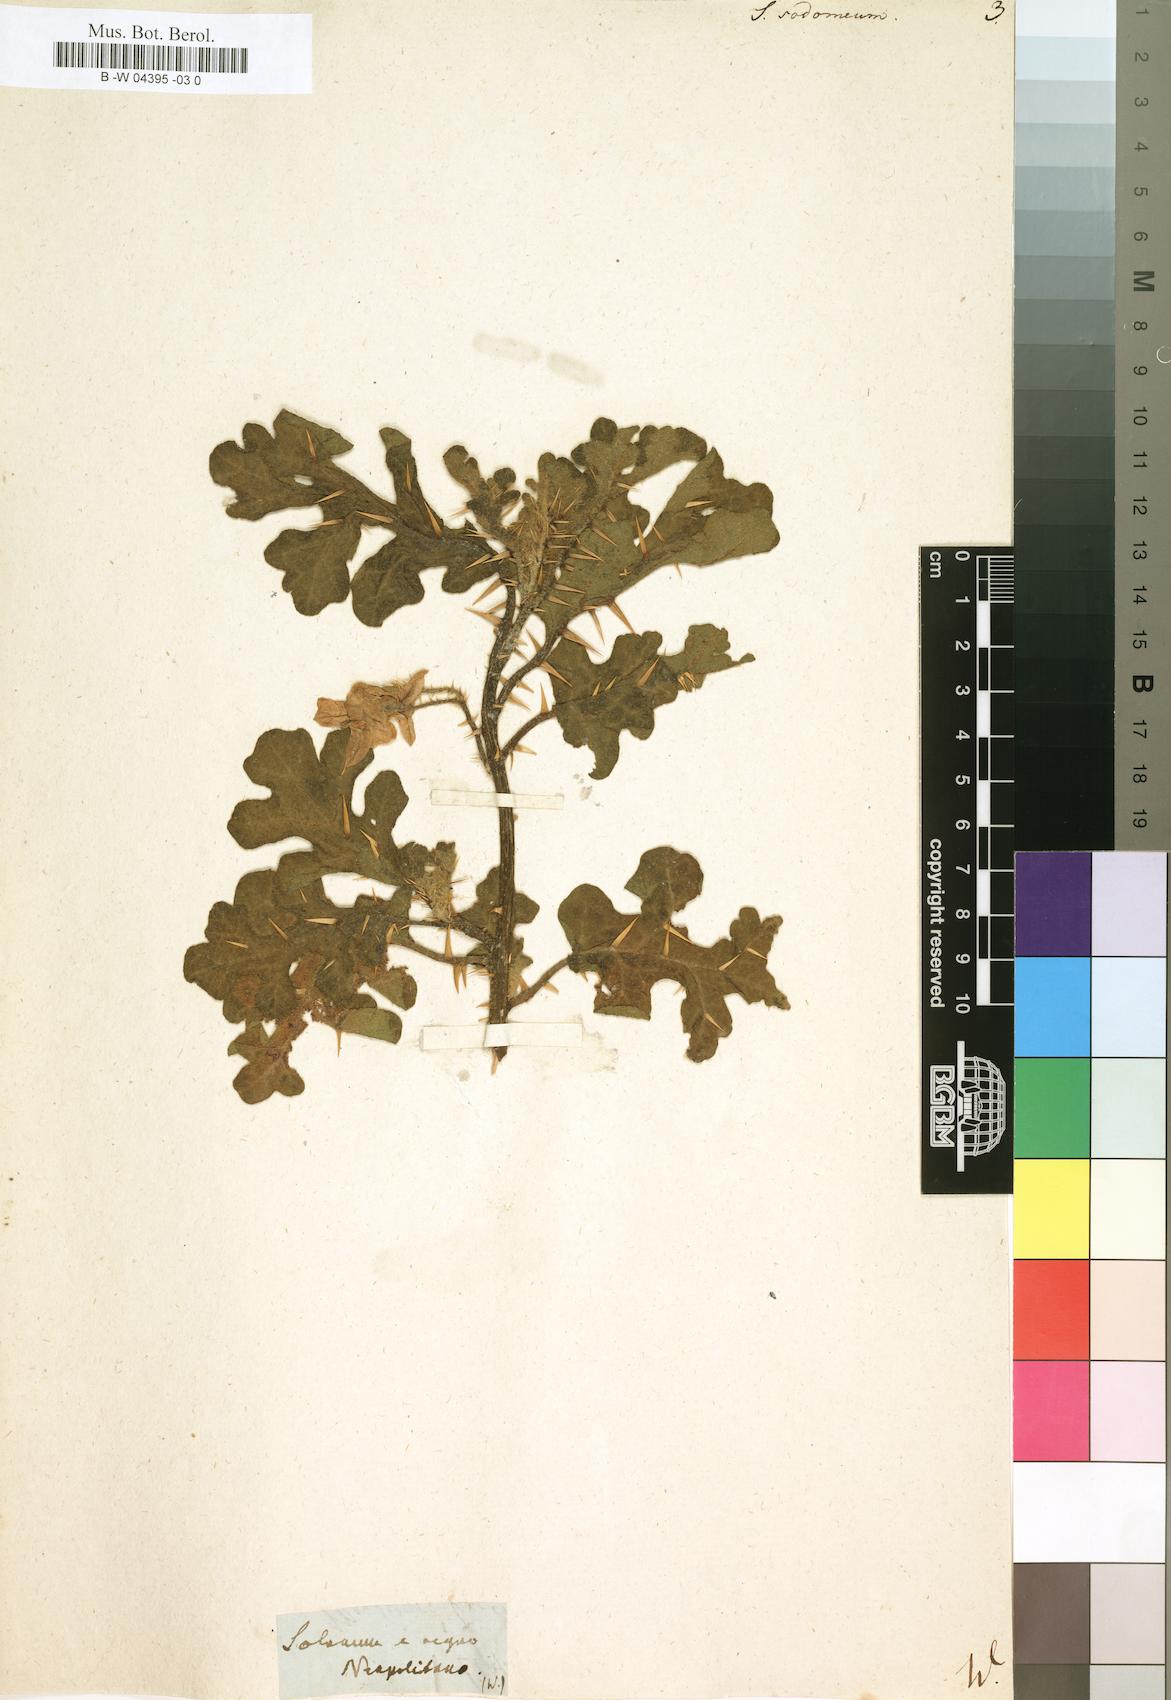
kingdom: Plantae
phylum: Tracheophyta
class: Magnoliopsida
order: Solanales
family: Solanaceae
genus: Solanum
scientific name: Solanum
